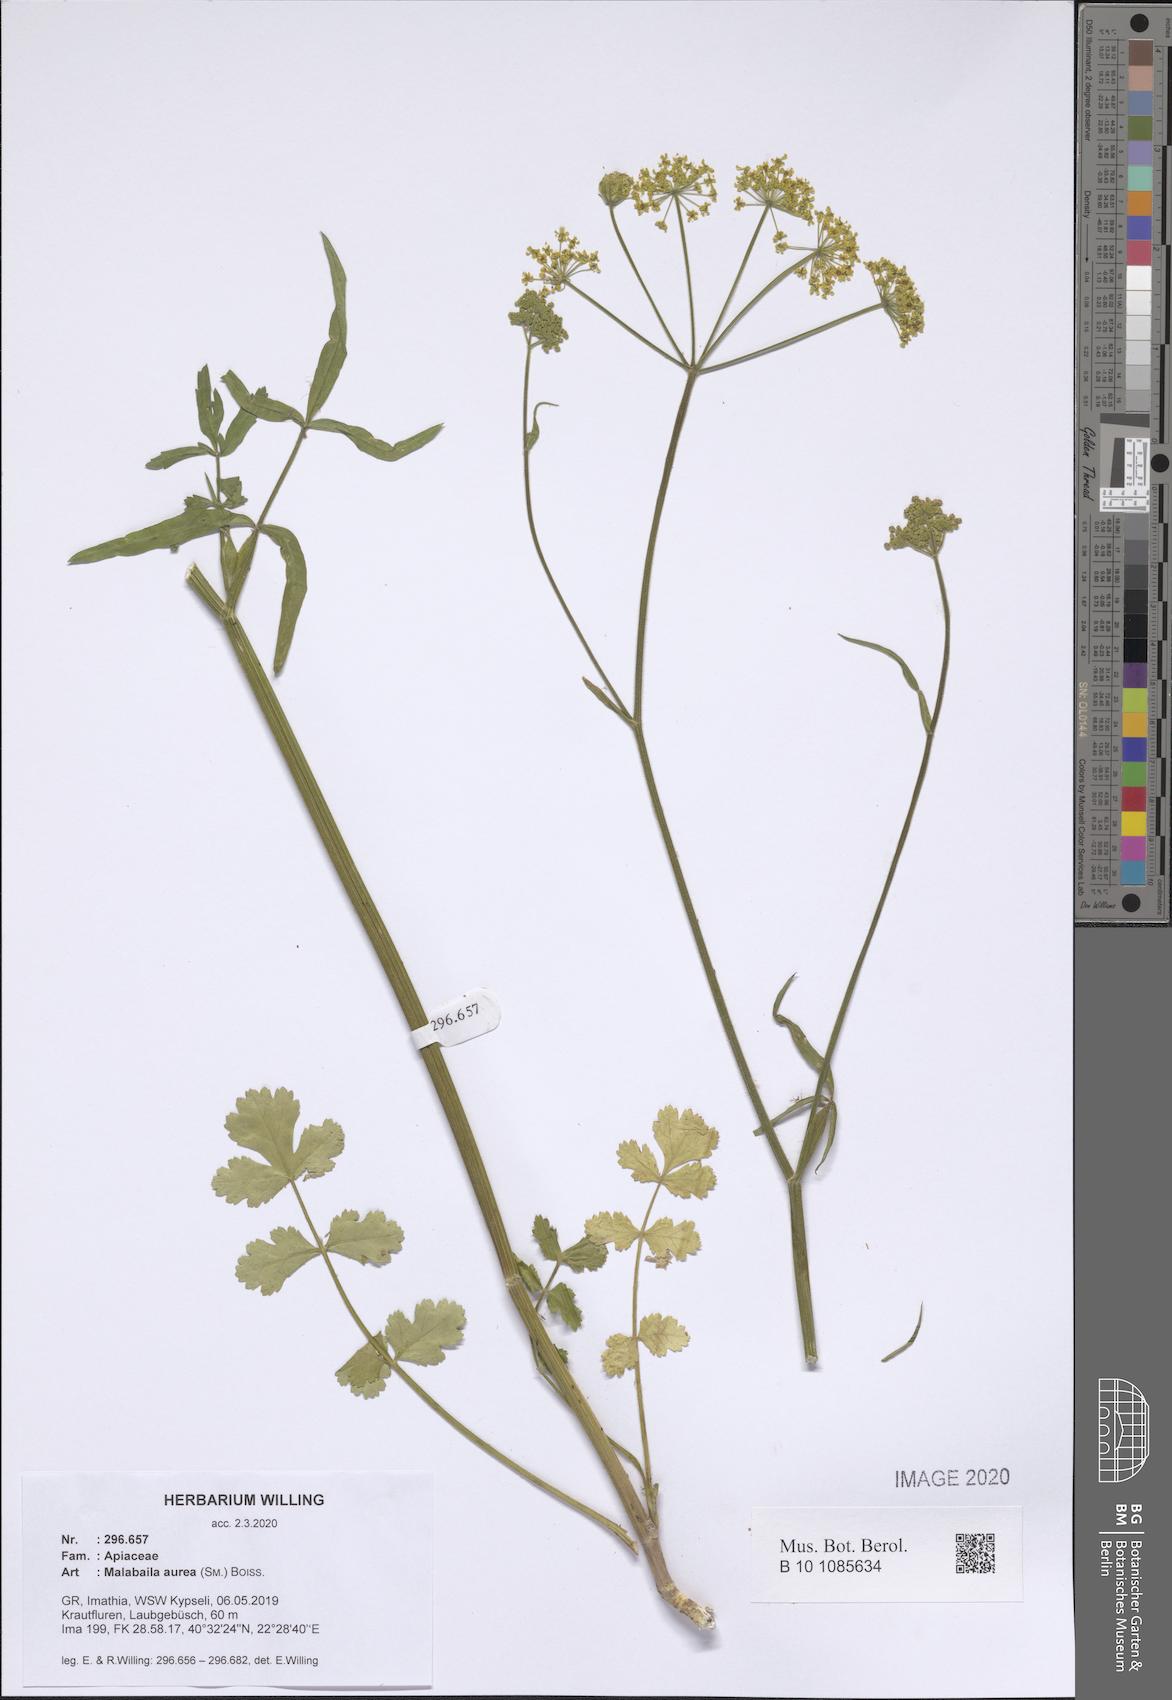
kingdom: Plantae
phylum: Tracheophyta
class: Magnoliopsida
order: Apiales
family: Apiaceae
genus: Leiotulus
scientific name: Leiotulus aureus
